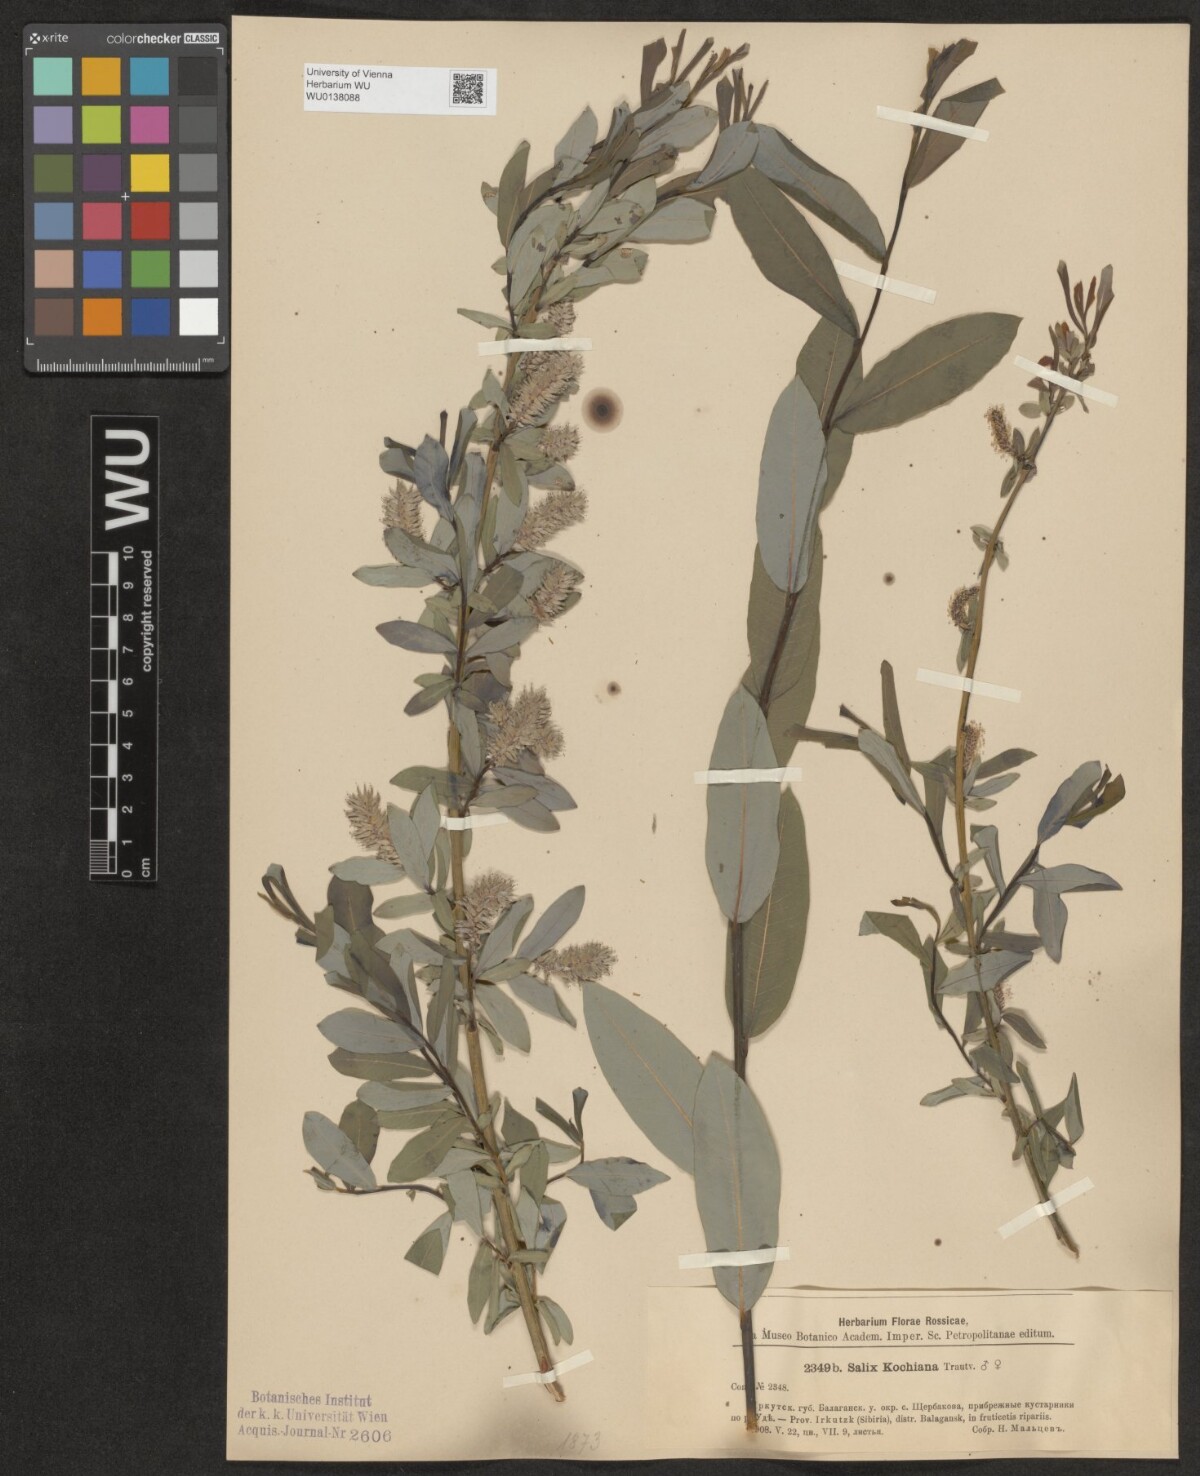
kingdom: Plantae
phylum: Tracheophyta
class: Magnoliopsida
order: Malpighiales
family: Salicaceae
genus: Salix
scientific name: Salix kochiana
